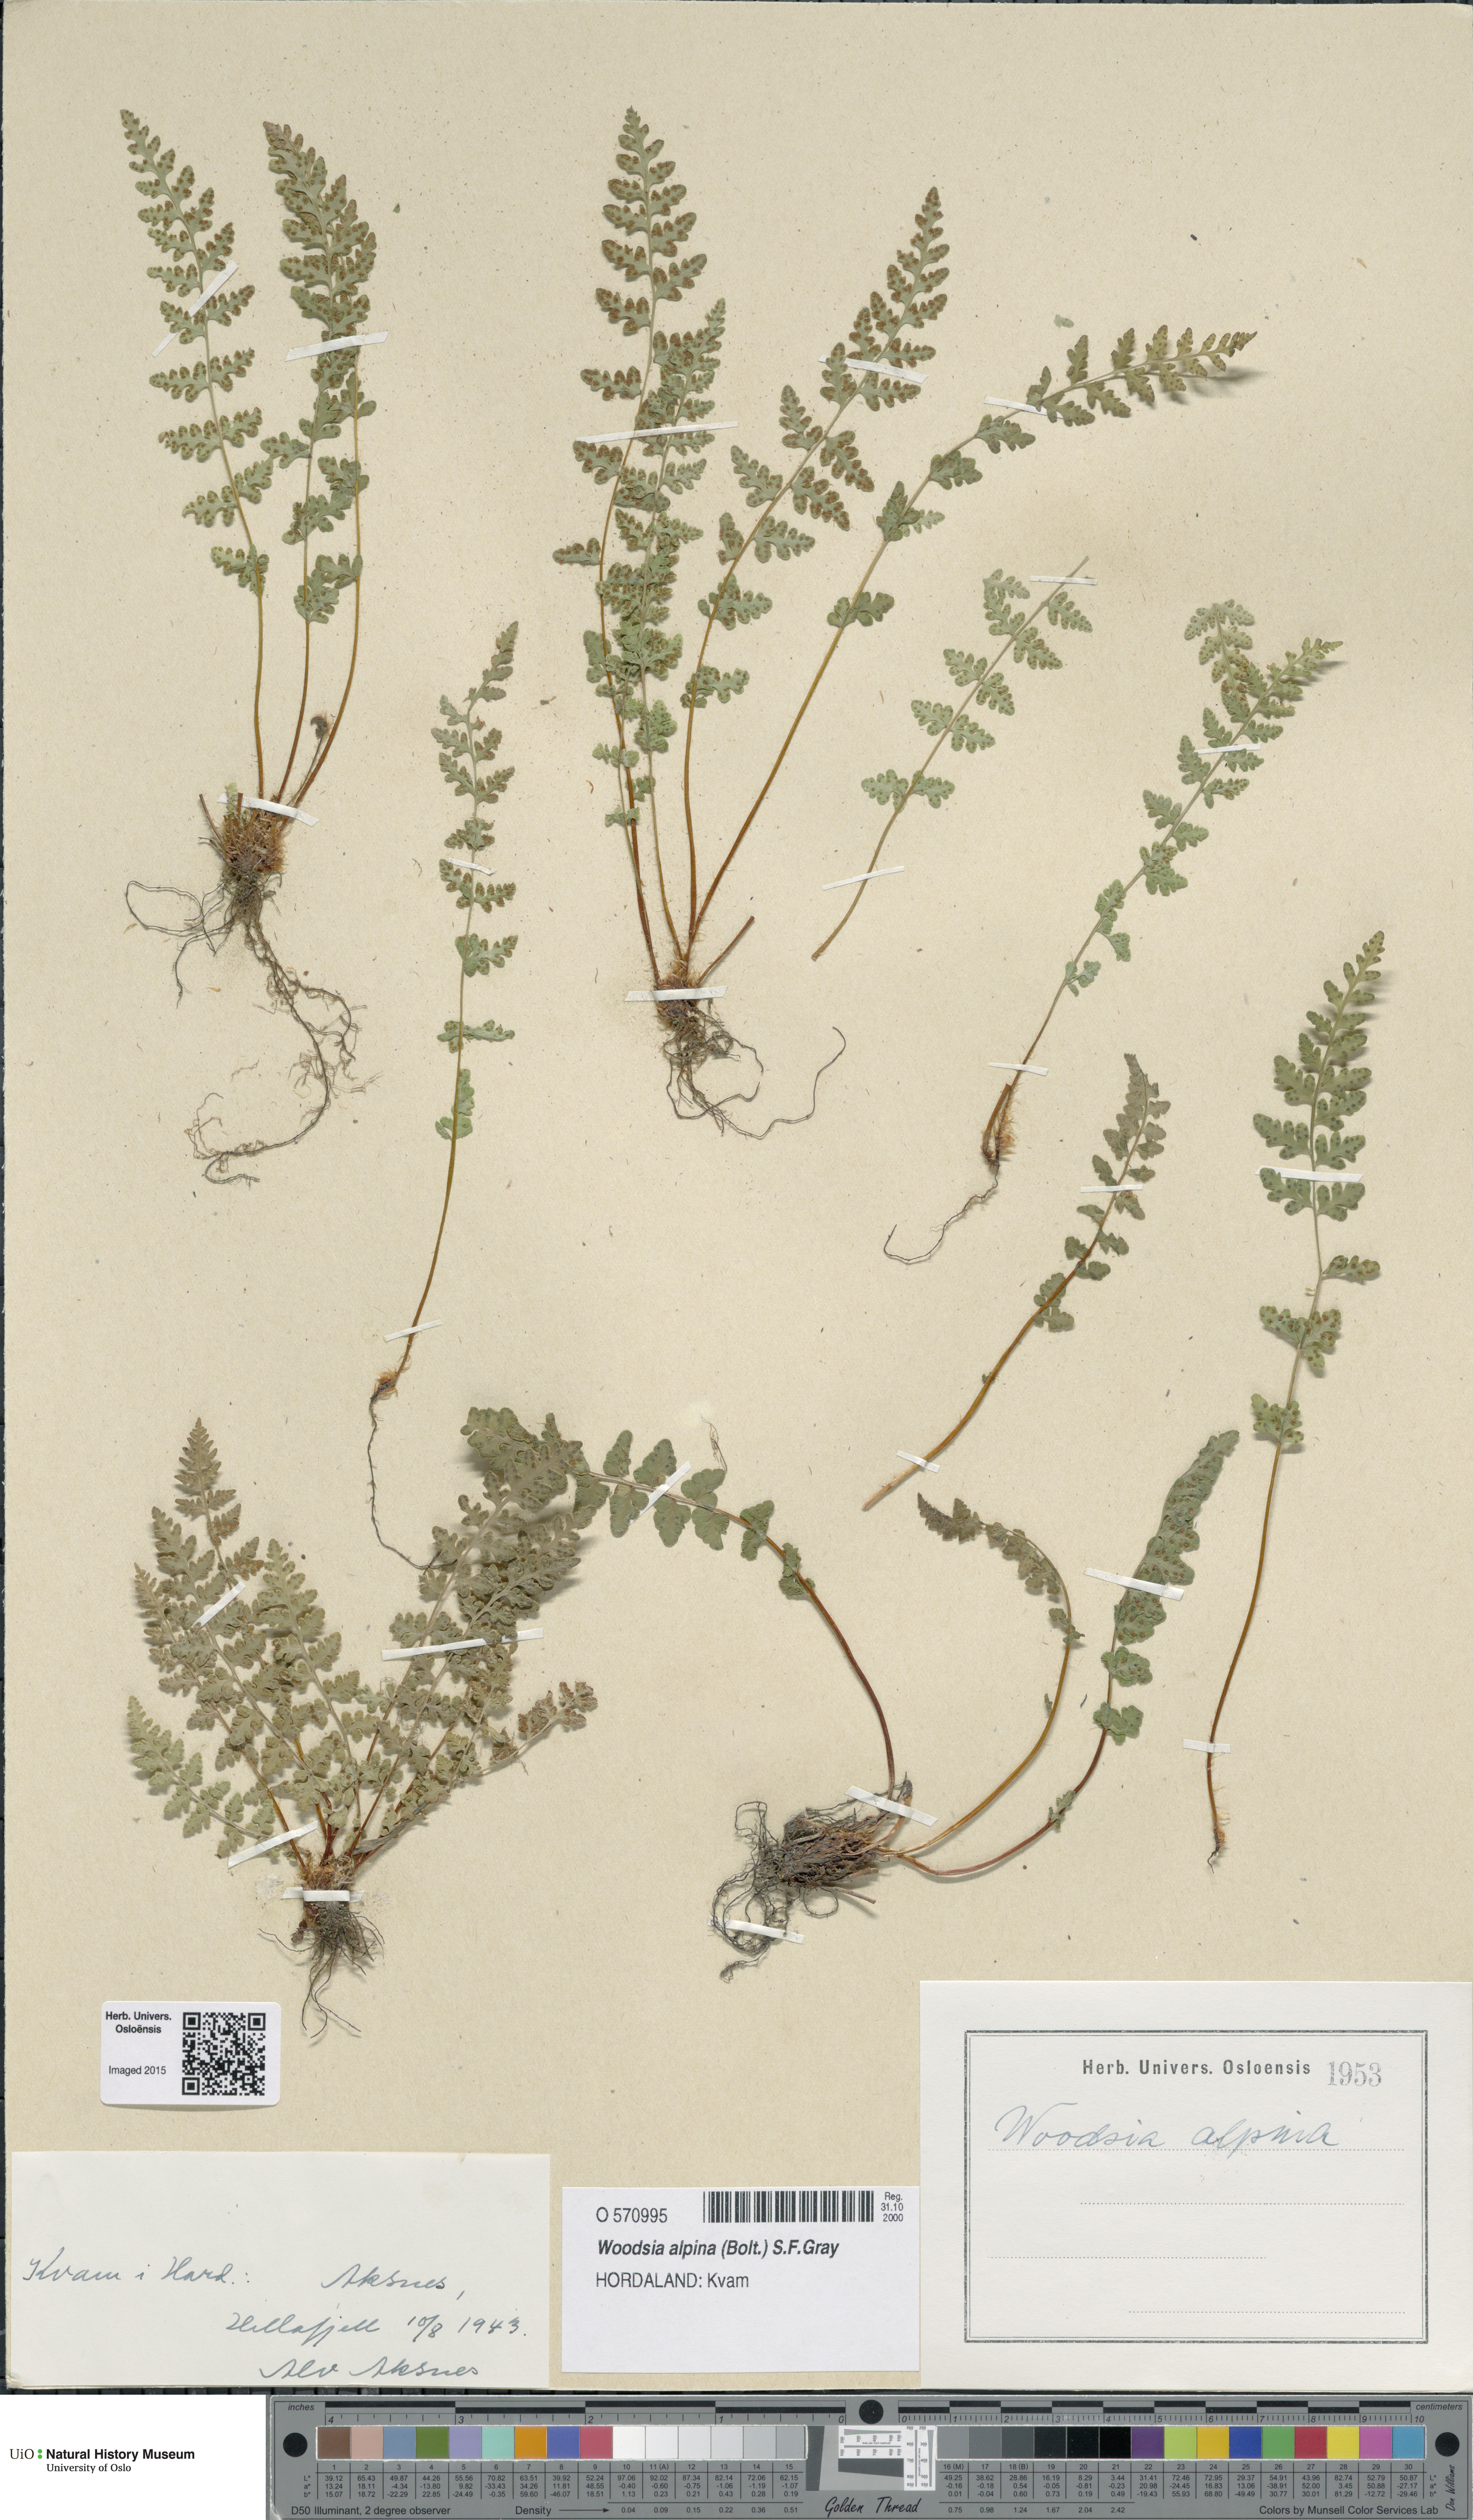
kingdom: Plantae
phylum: Tracheophyta
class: Polypodiopsida
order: Polypodiales
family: Woodsiaceae
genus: Woodsia
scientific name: Woodsia alpina
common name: Alpine woodsia
